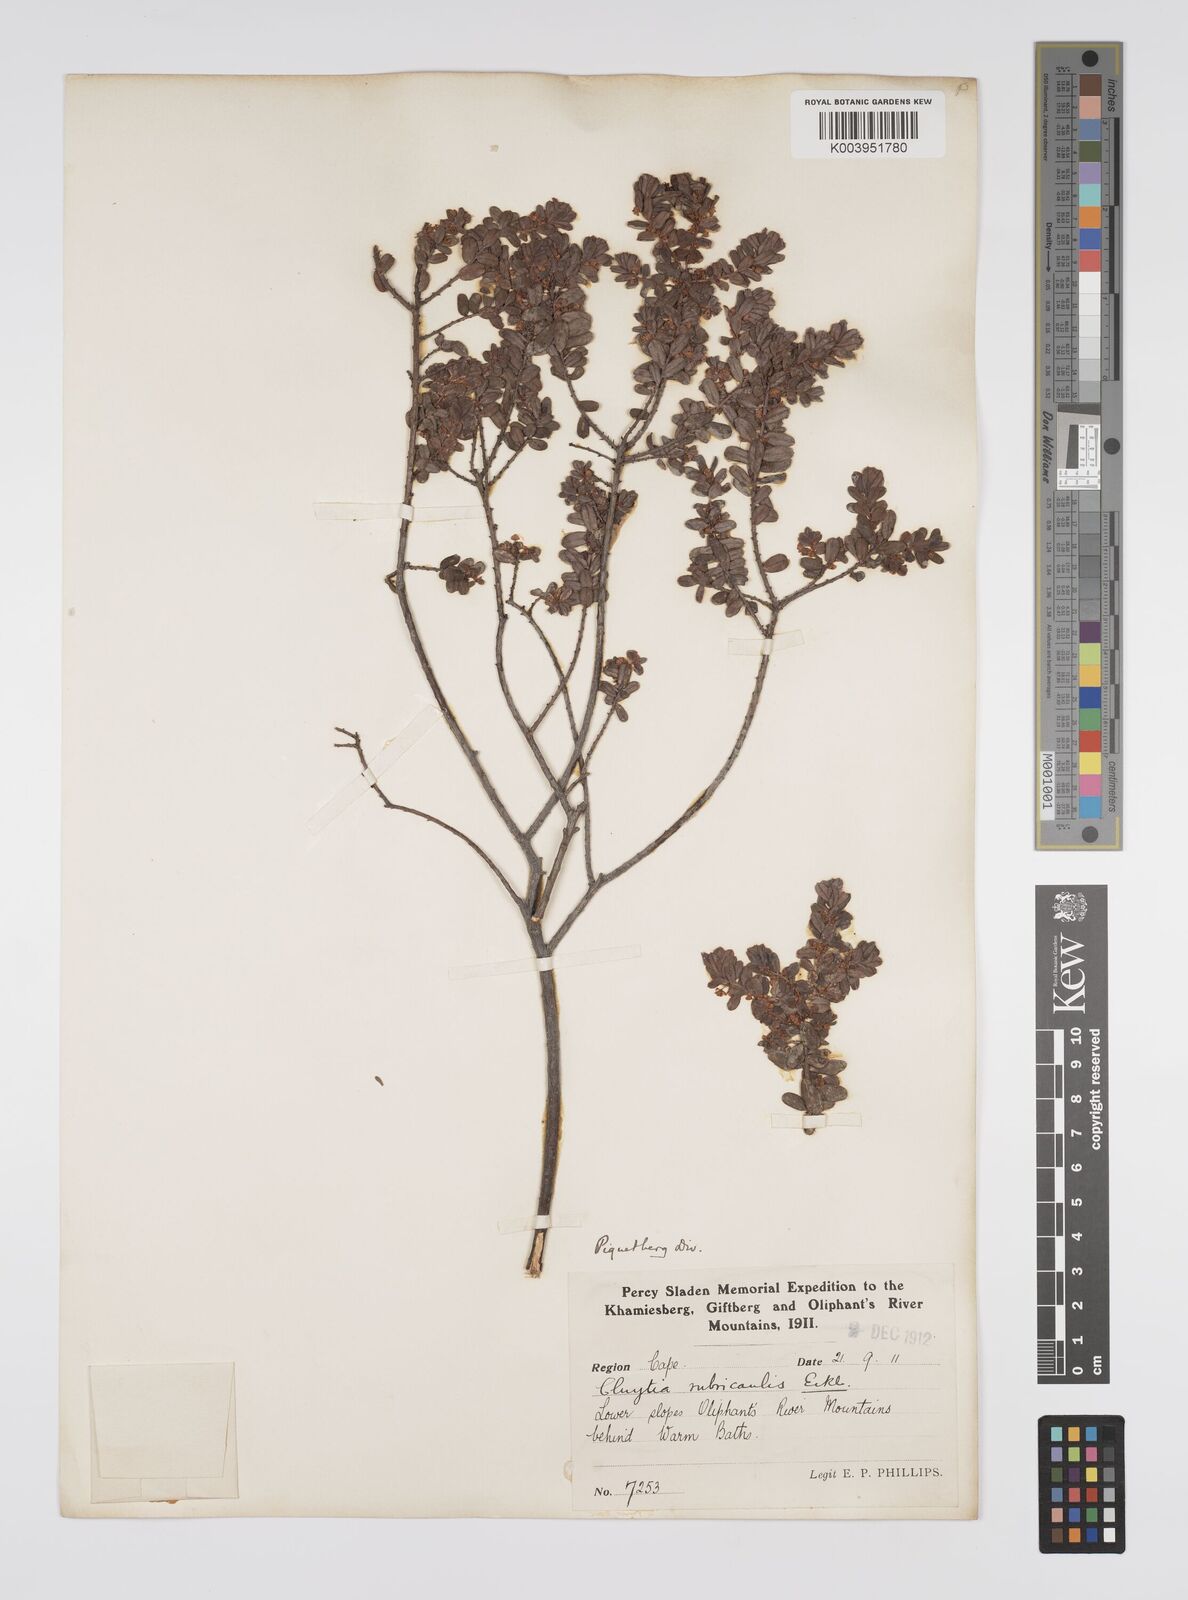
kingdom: Plantae
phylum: Tracheophyta
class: Magnoliopsida
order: Malpighiales
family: Peraceae
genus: Clutia
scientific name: Clutia rubricaulis
